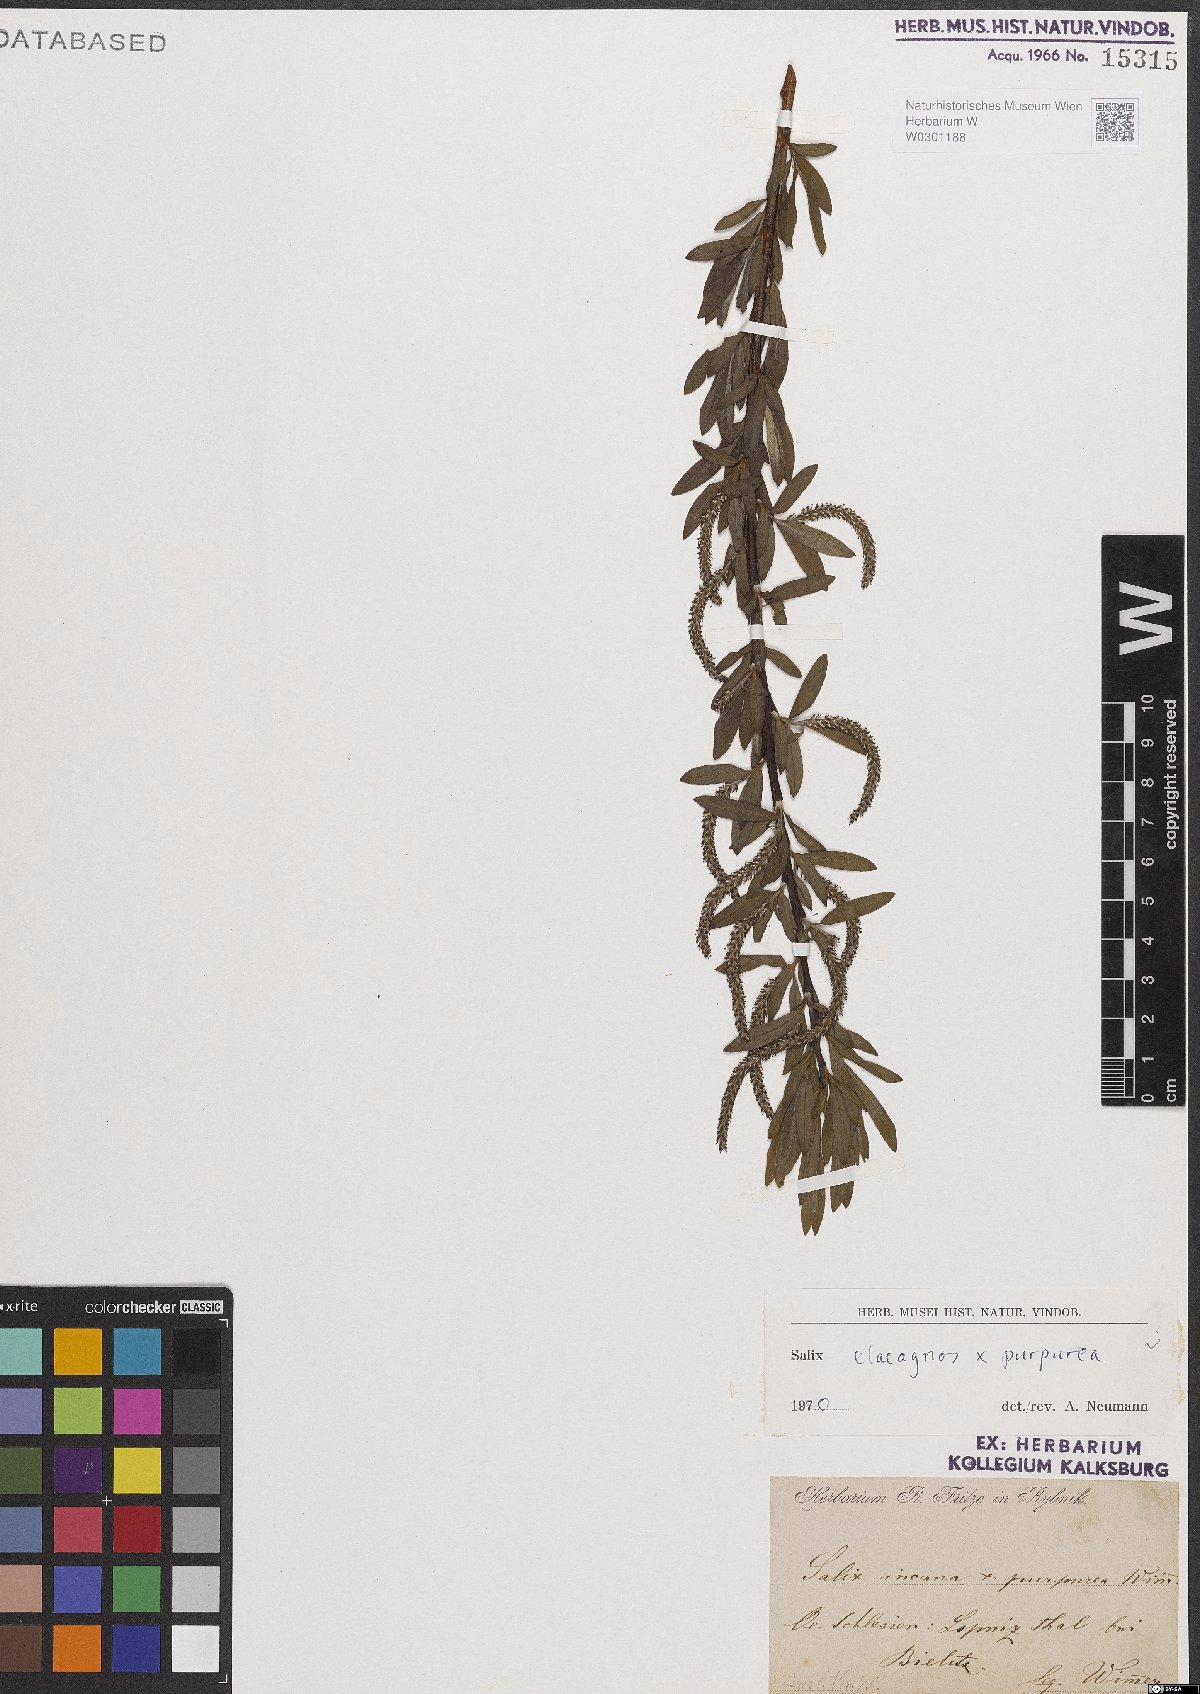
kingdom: Plantae
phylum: Tracheophyta
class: Magnoliopsida
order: Malpighiales
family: Salicaceae
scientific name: Salicaceae
